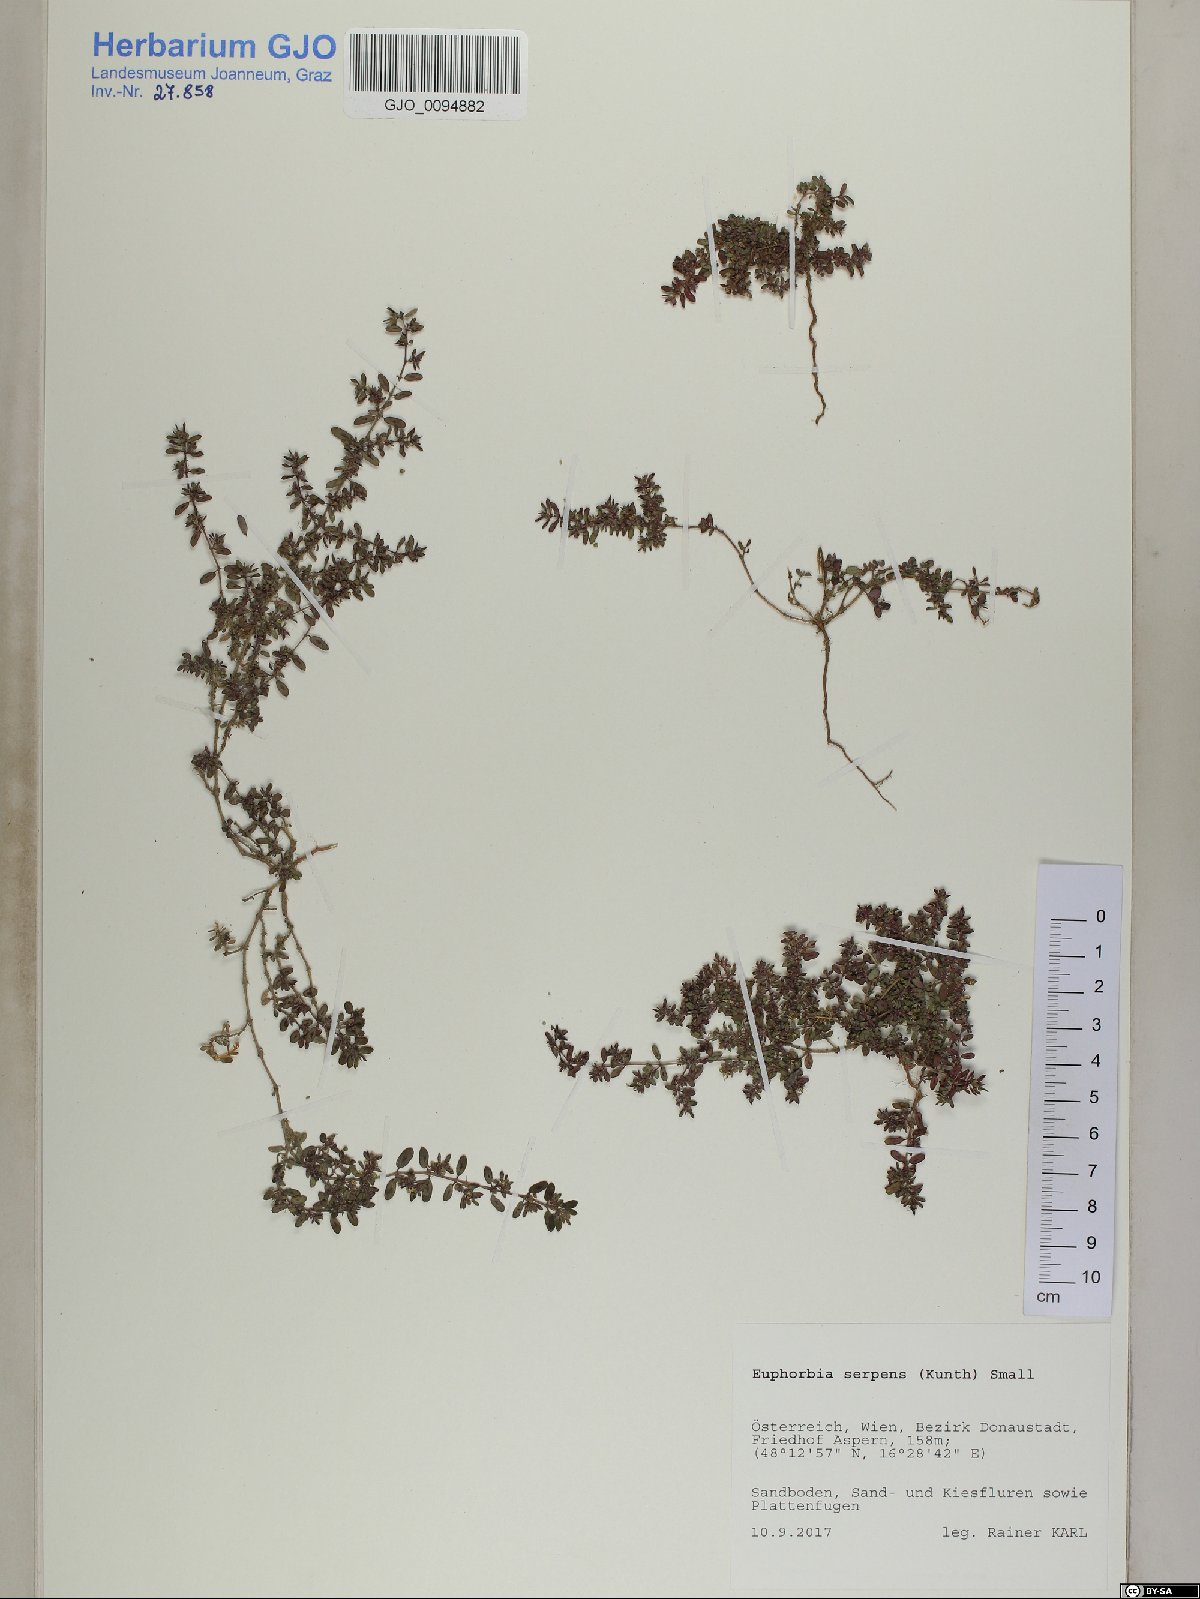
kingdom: Plantae
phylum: Tracheophyta
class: Magnoliopsida
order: Malpighiales
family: Euphorbiaceae
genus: Euphorbia
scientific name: Euphorbia serpens
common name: Matted sandmat
